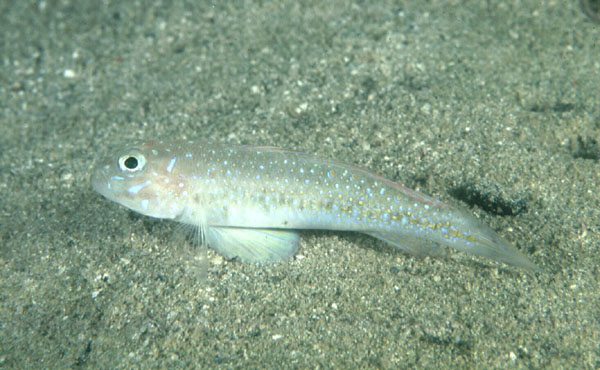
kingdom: Animalia
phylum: Chordata
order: Perciformes
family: Gobiidae
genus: Oplopomus
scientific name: Oplopomus oplopomus
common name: Spinecheek goby
